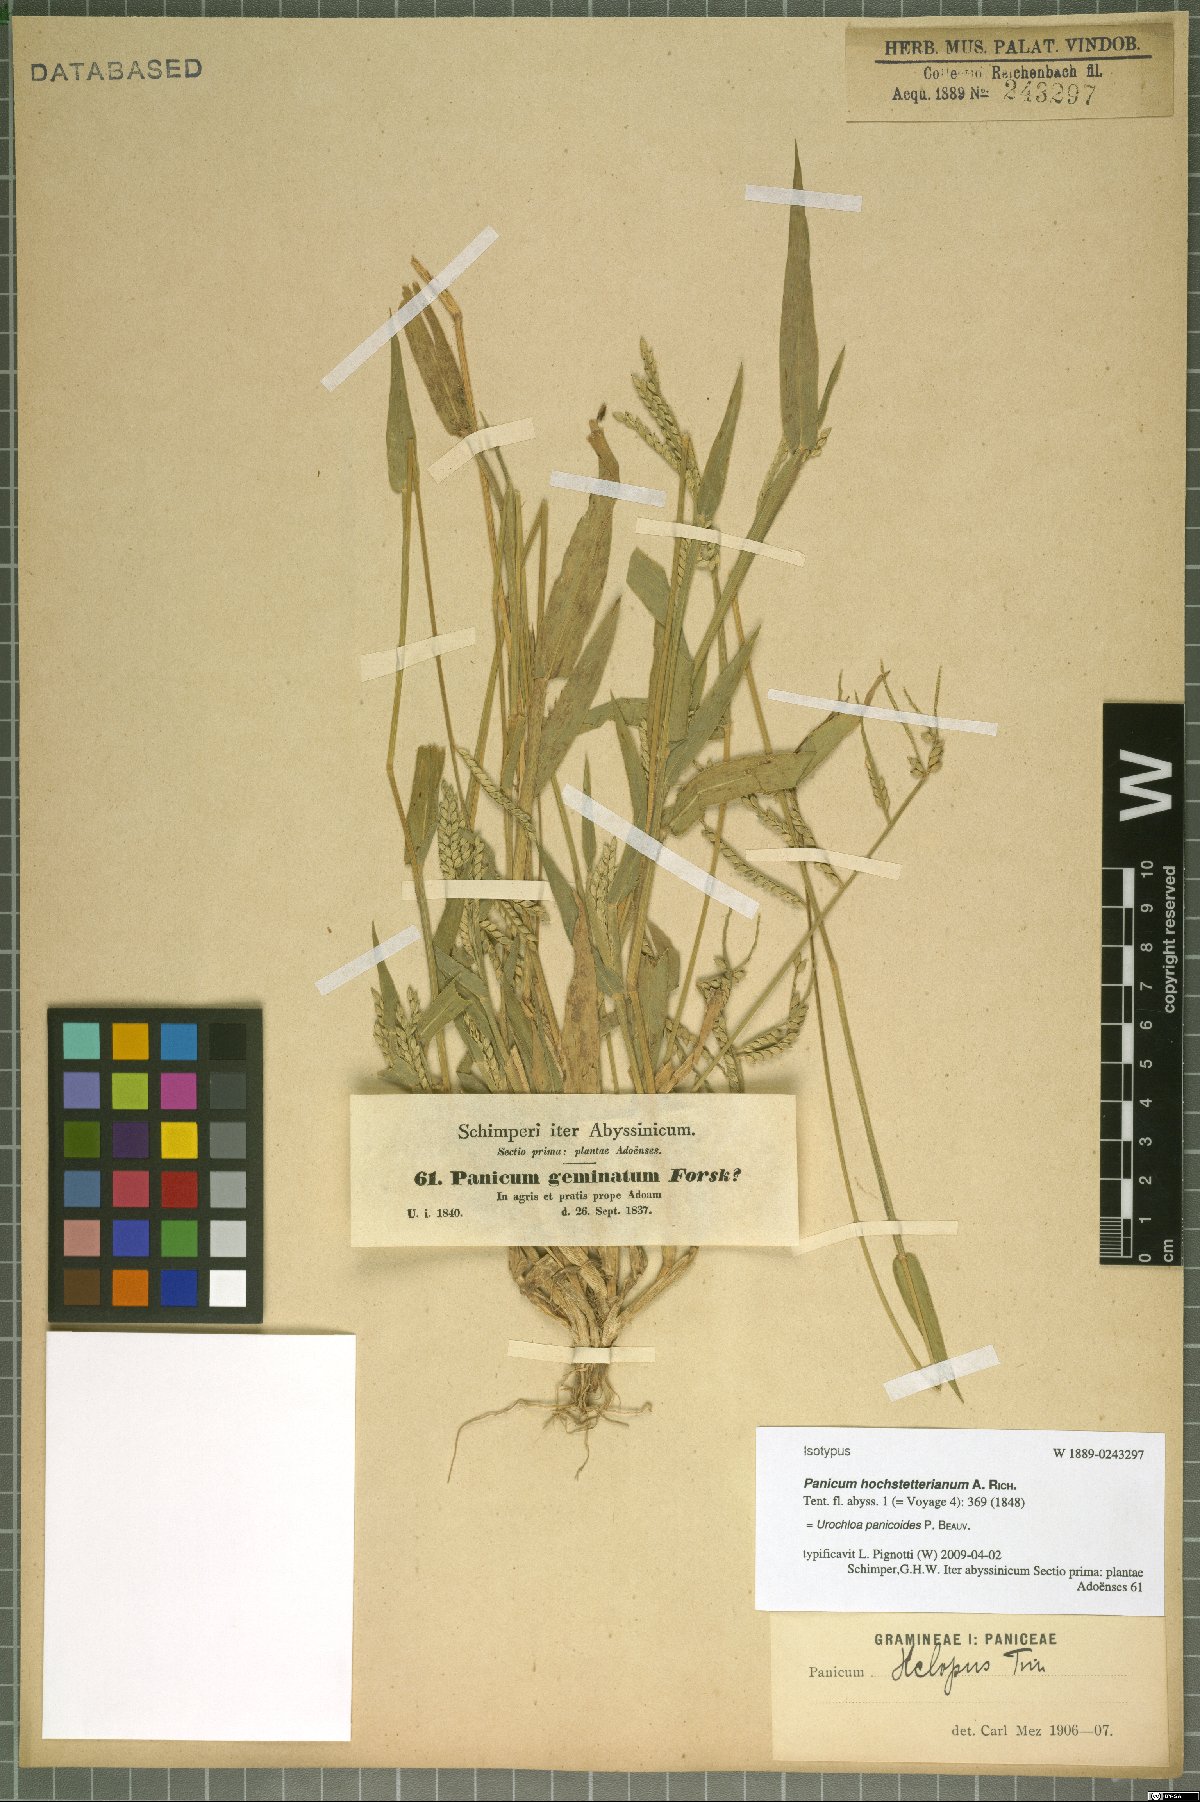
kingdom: Plantae
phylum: Tracheophyta
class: Liliopsida
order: Poales
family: Poaceae
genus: Urochloa
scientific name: Urochloa panicoides
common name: Sharp-flowered signal-grass
